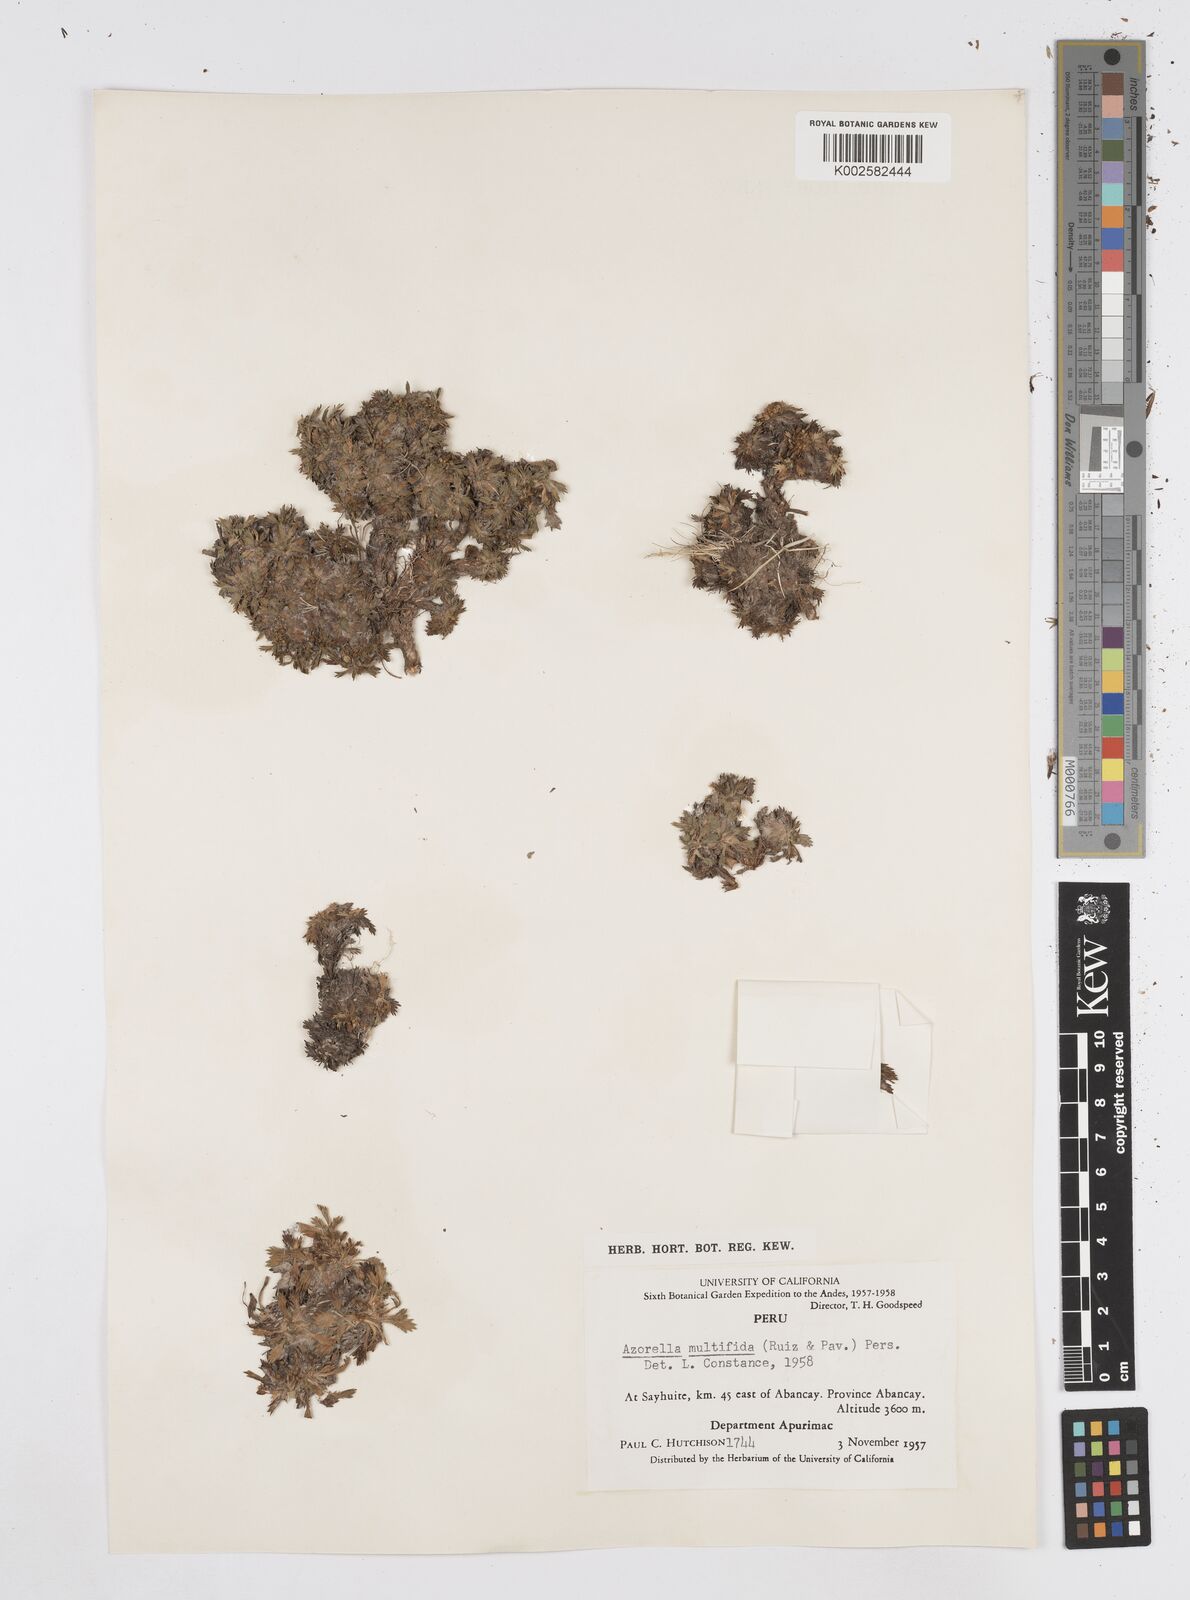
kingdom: Plantae
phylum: Tracheophyta
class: Magnoliopsida
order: Apiales
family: Apiaceae
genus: Azorella
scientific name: Azorella multifida
